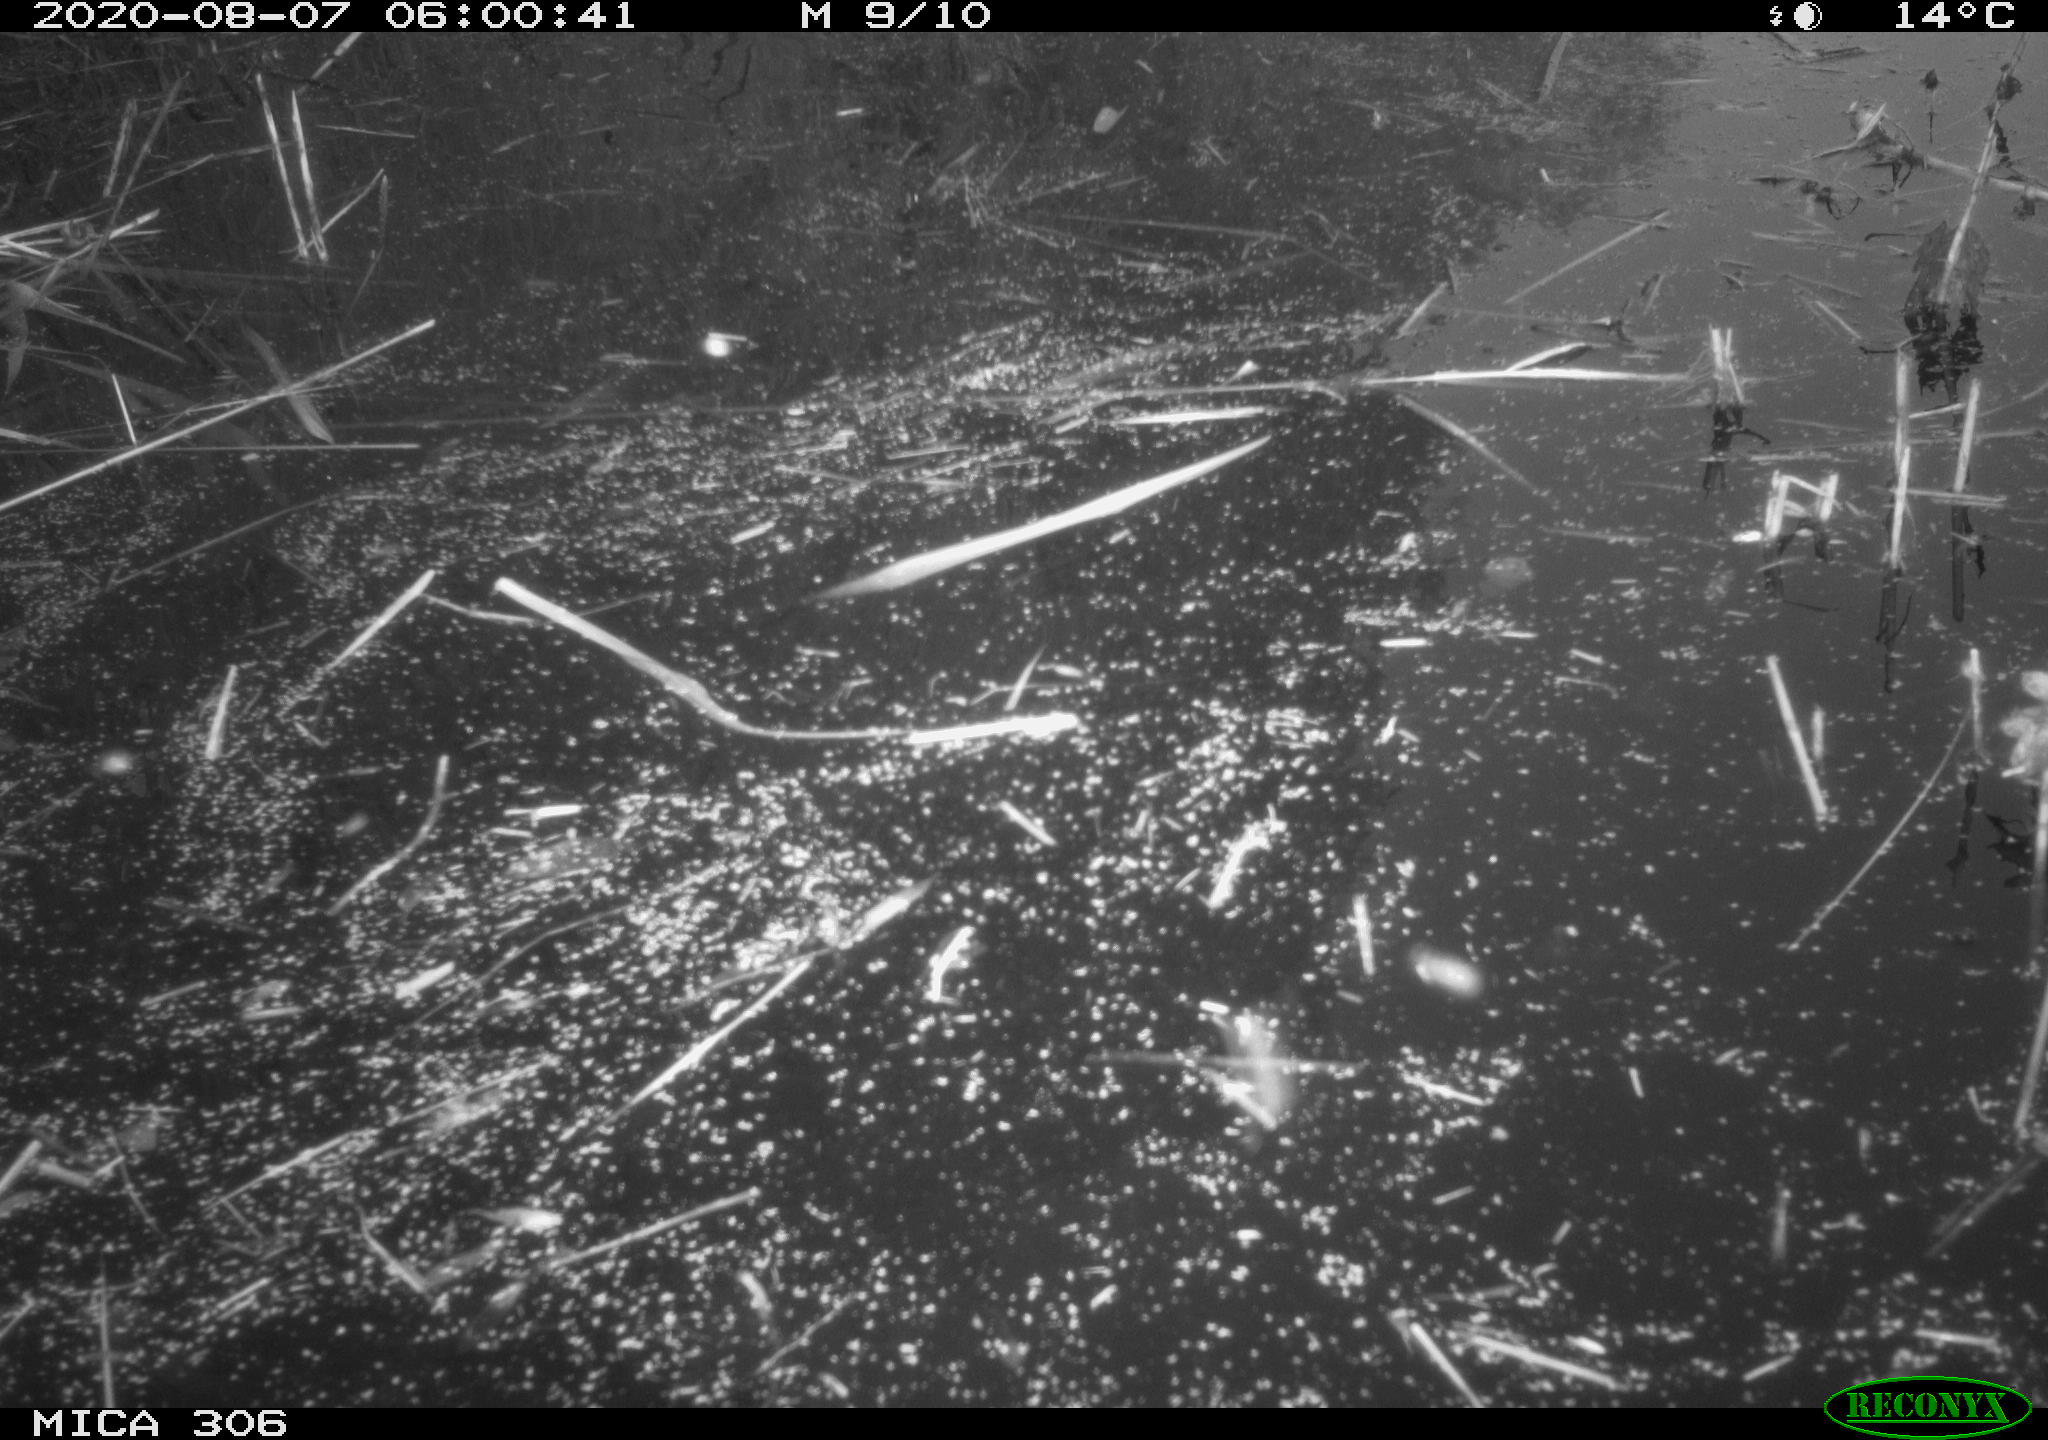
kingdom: Animalia
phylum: Chordata
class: Mammalia
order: Rodentia
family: Muridae
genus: Rattus
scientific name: Rattus norvegicus
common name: Brown rat
